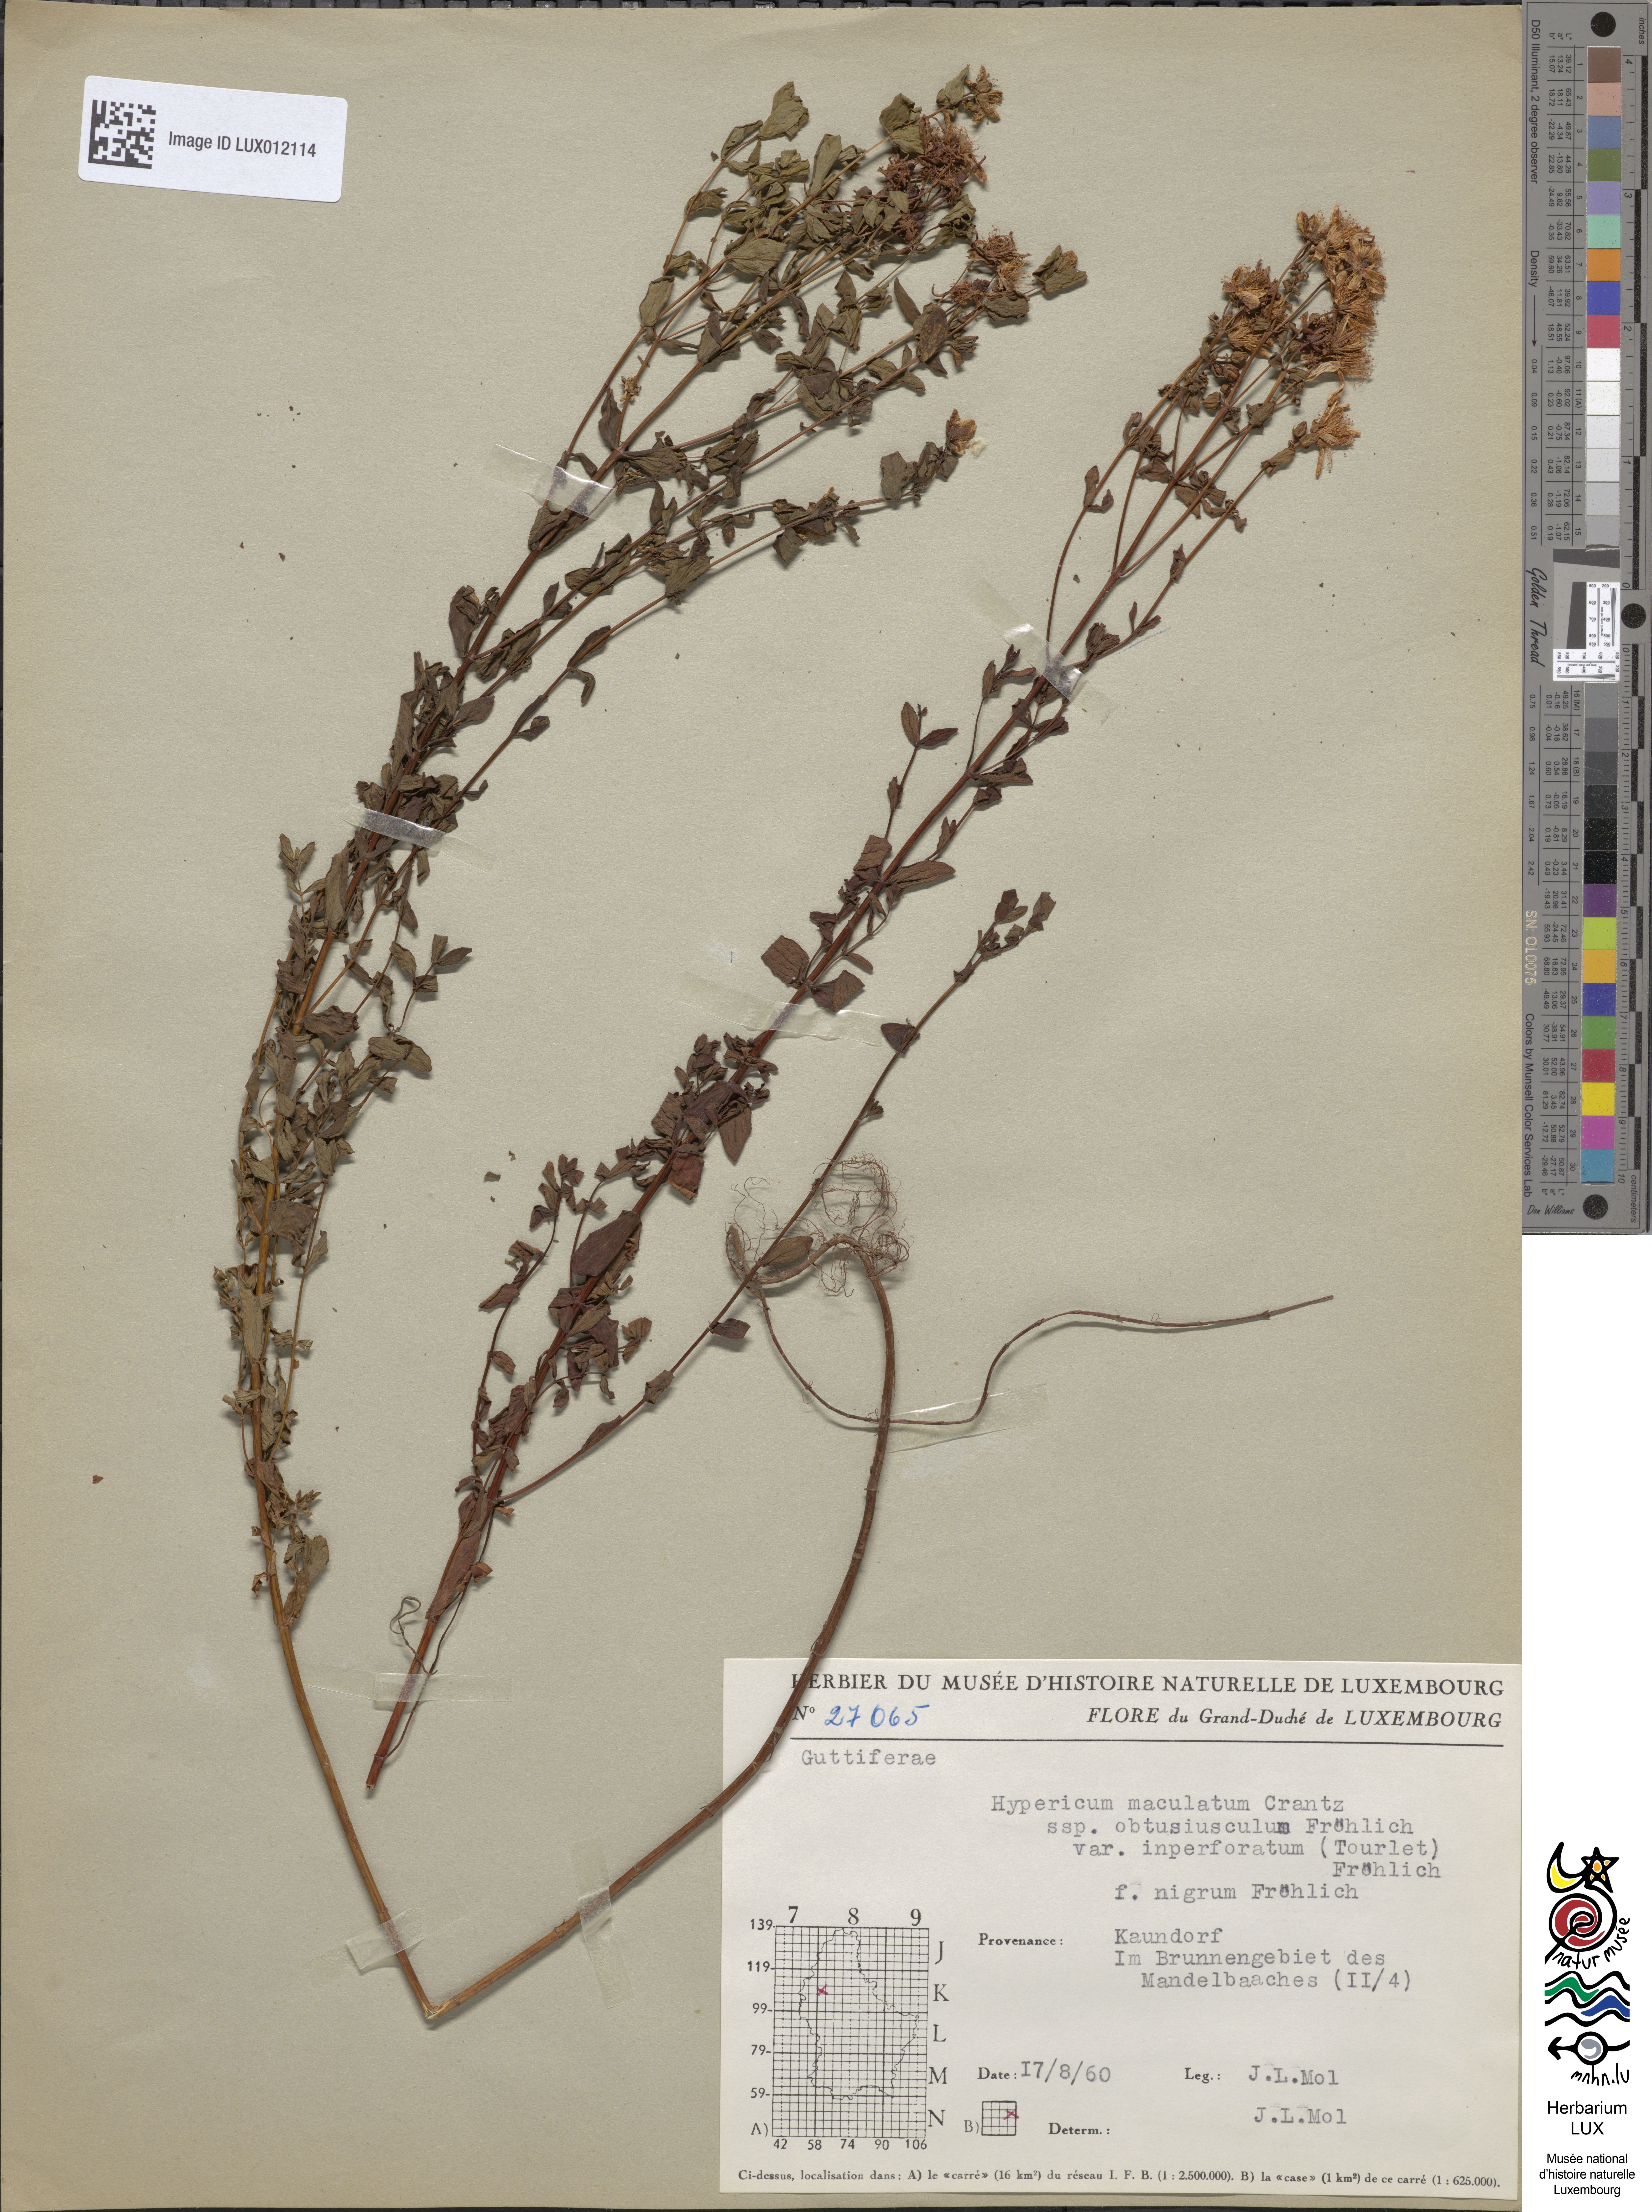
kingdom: Plantae
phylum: Tracheophyta
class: Magnoliopsida
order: Malpighiales
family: Hypericaceae
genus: Hypericum
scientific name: Hypericum dubium
